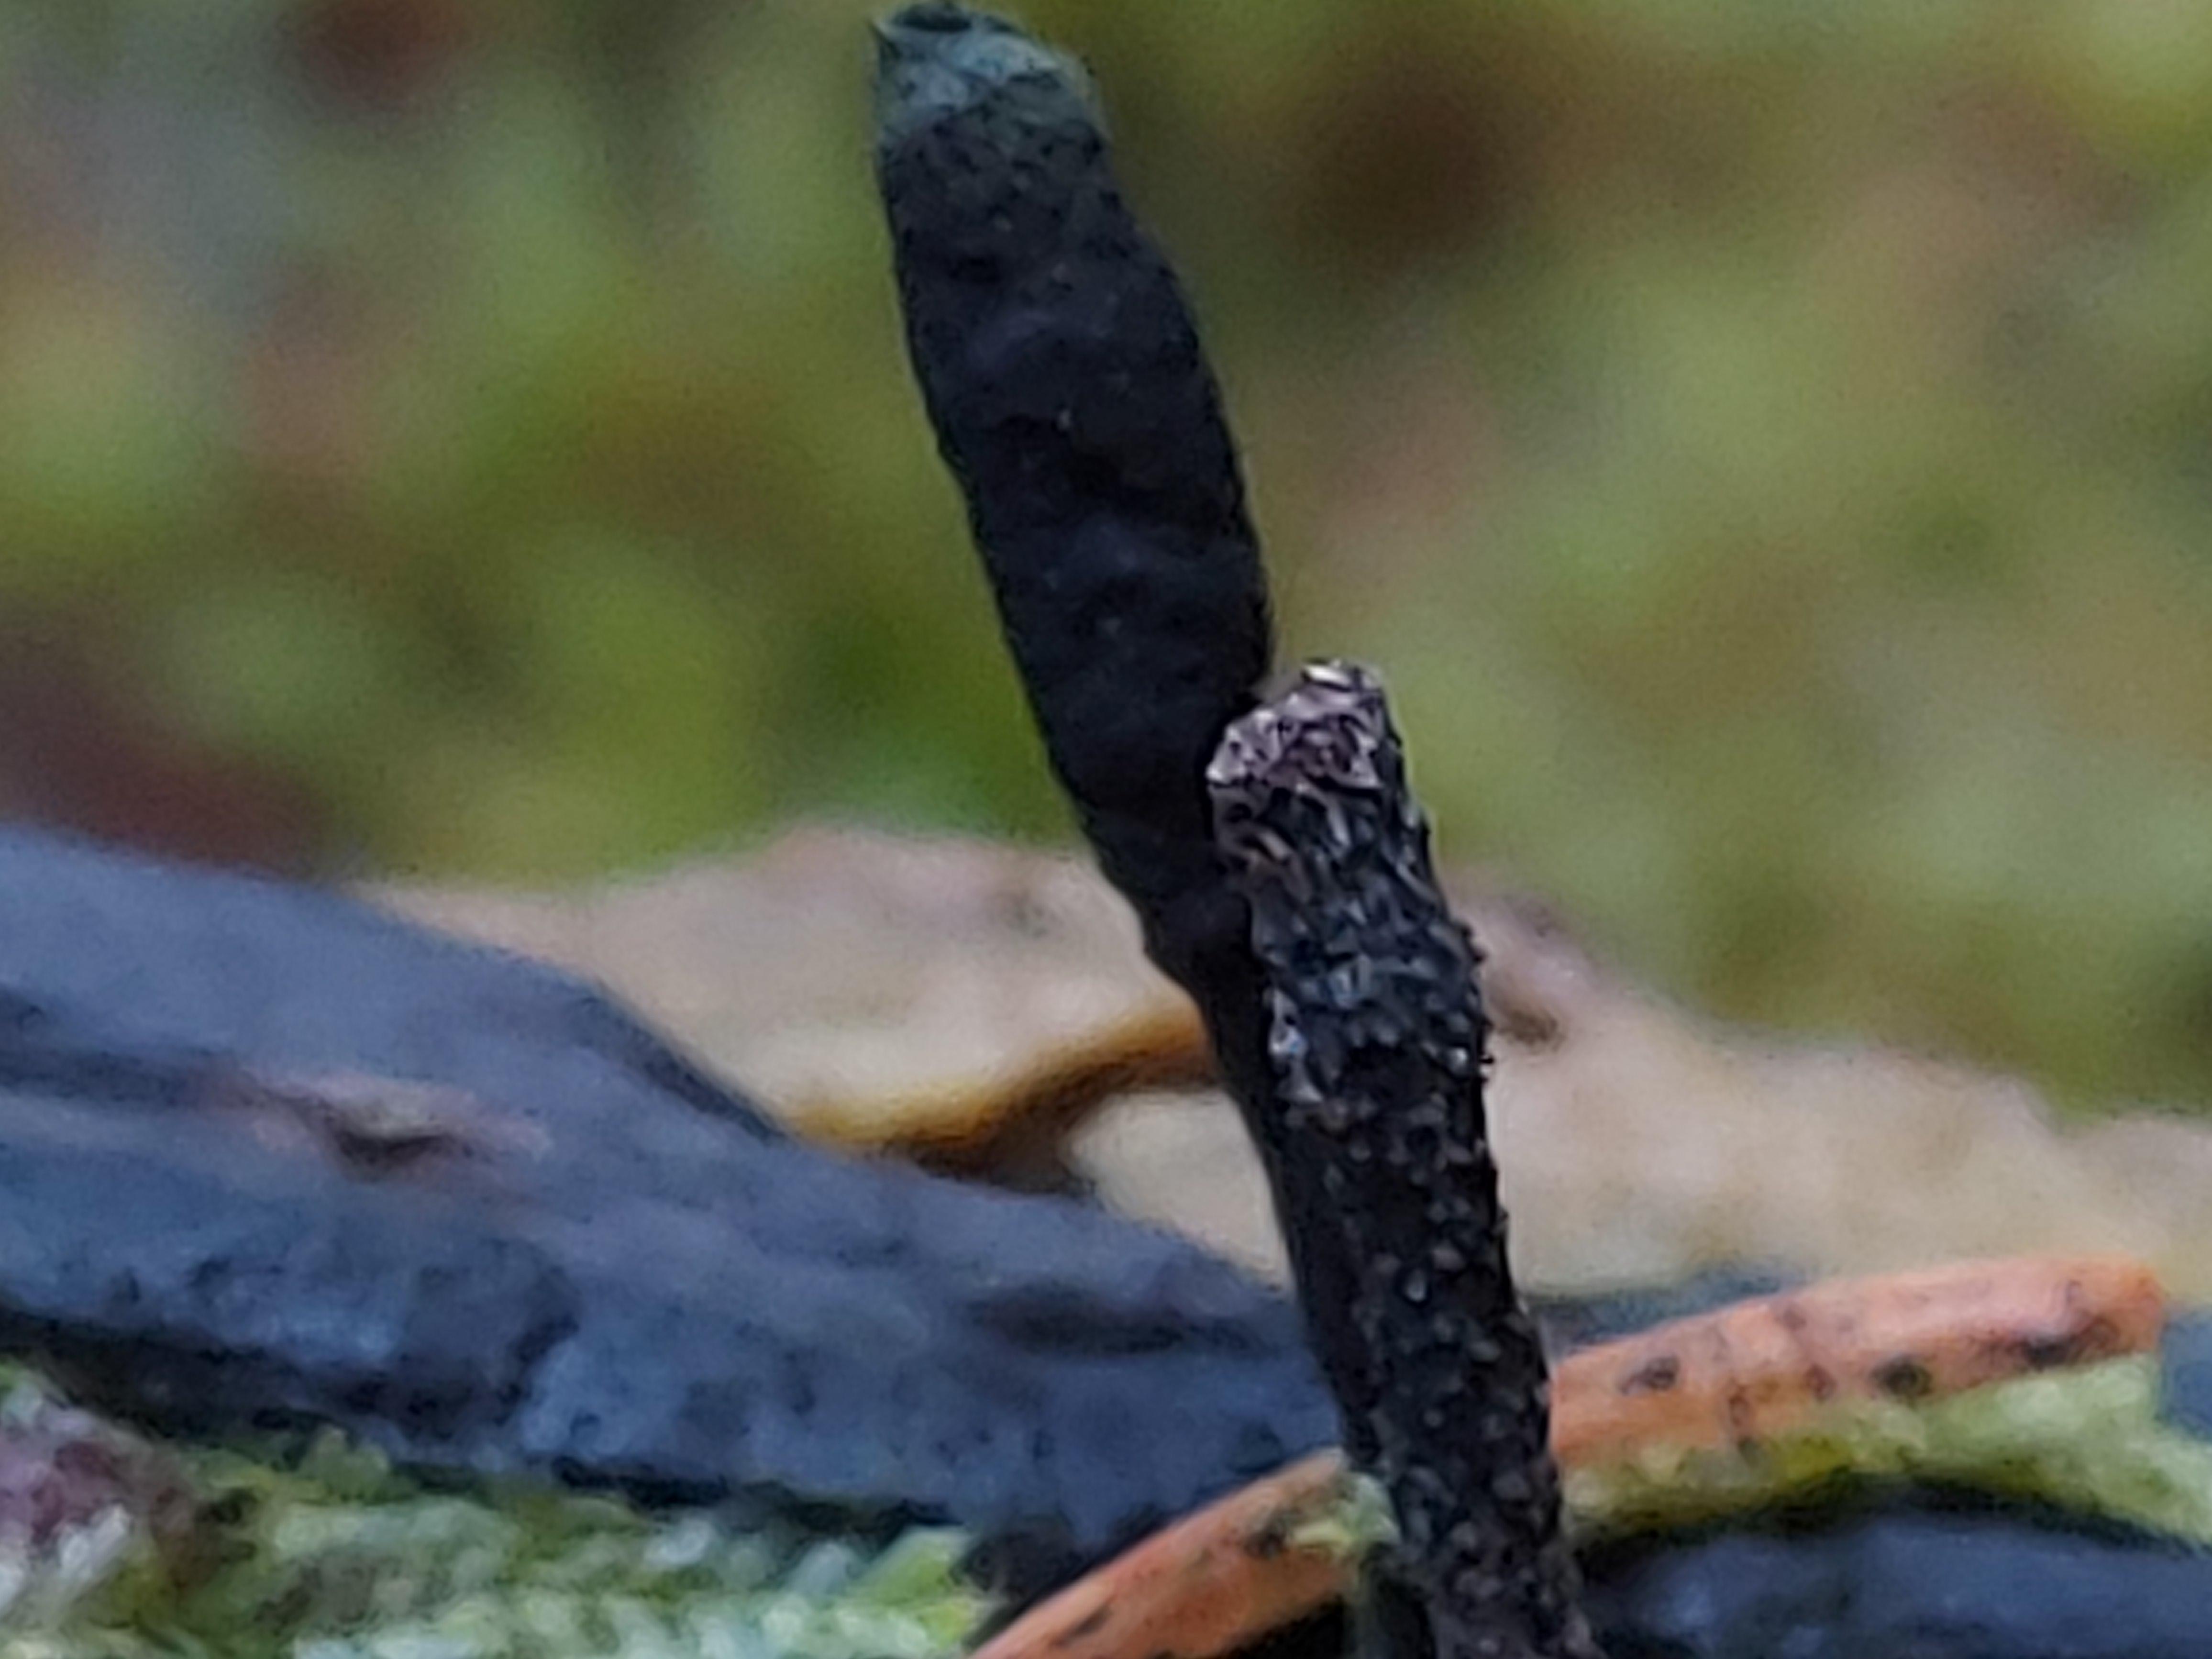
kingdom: Fungi
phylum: Ascomycota
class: Sordariomycetes
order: Xylariales
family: Xylariaceae
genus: Xylaria
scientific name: Xylaria hypoxylon
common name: grenet stødsvamp
